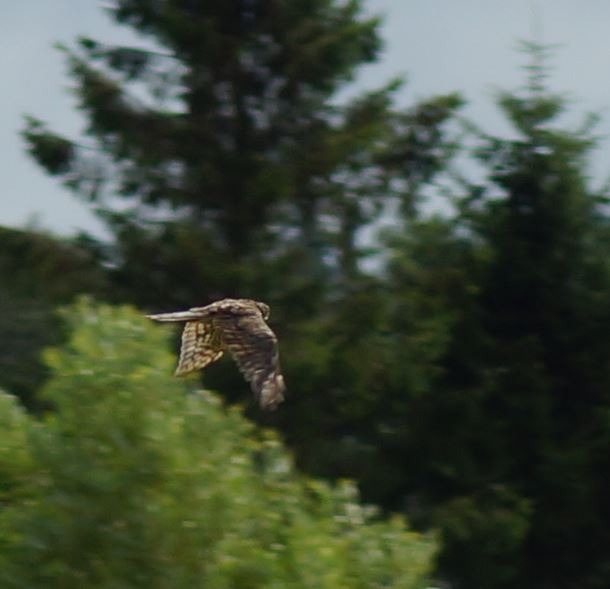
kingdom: Animalia
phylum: Chordata
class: Aves
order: Accipitriformes
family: Accipitridae
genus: Accipiter
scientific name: Accipiter nisus
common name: Spurvehøg
